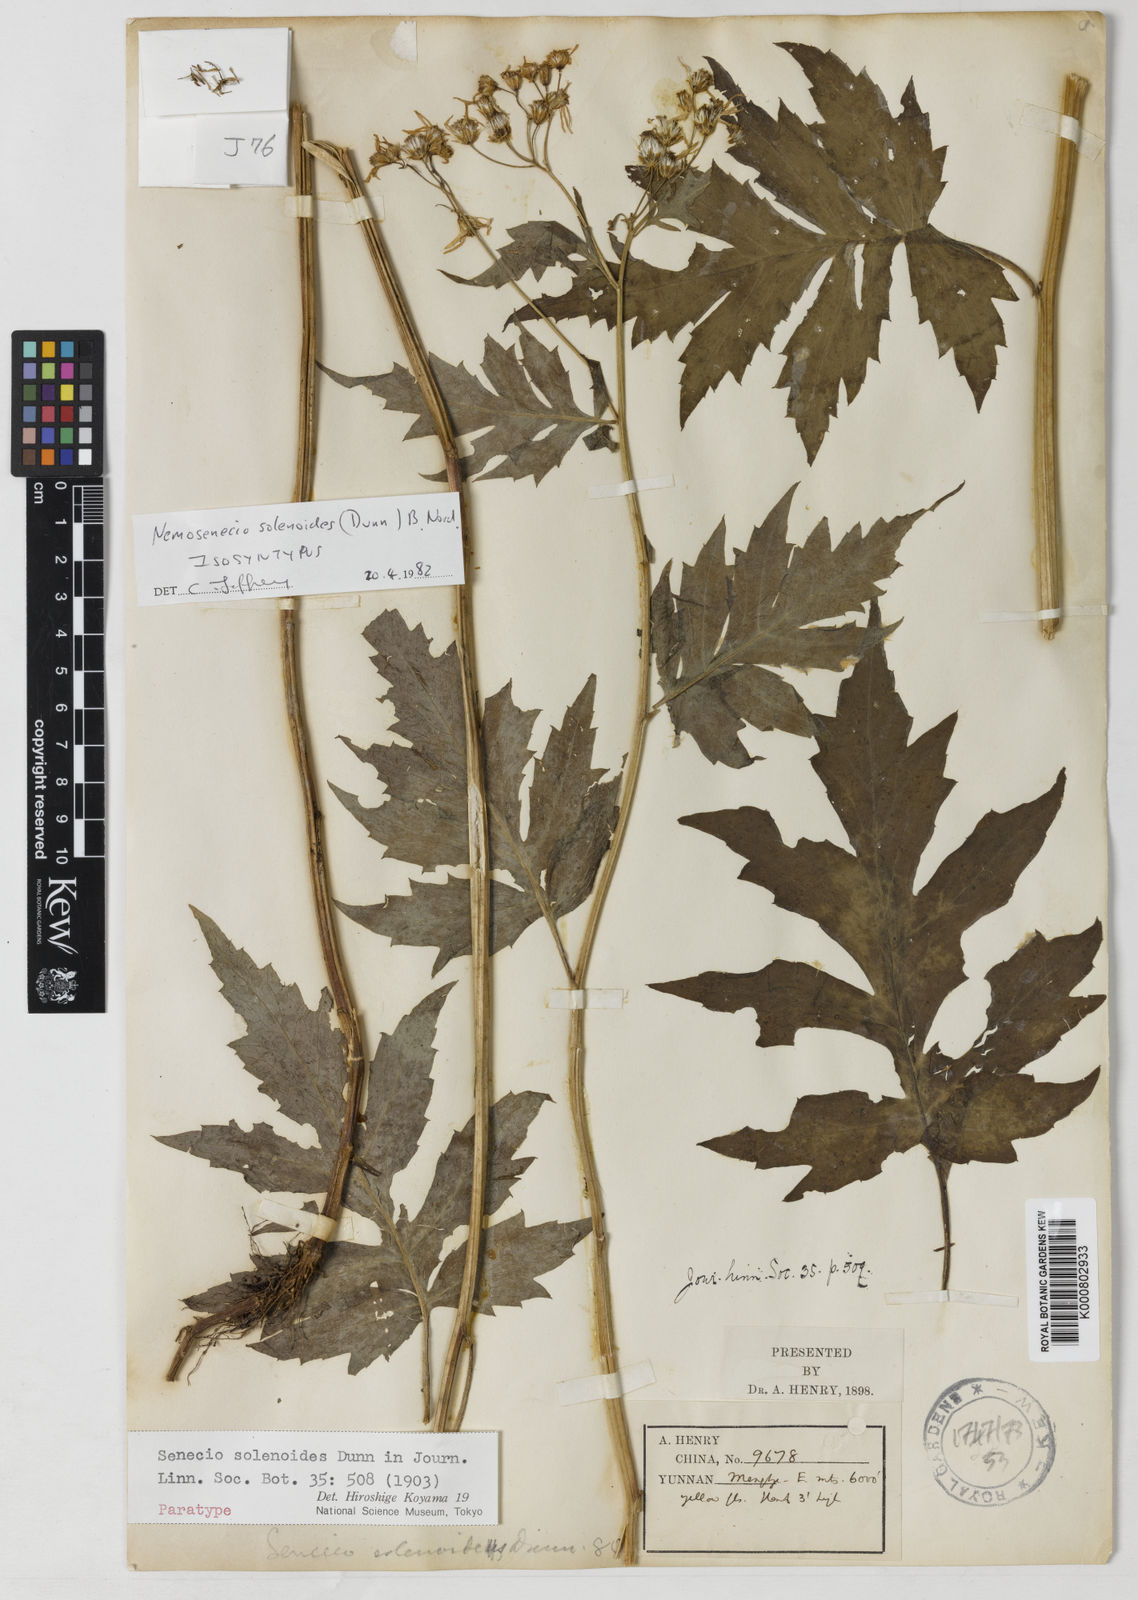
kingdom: Plantae
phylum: Tracheophyta
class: Magnoliopsida
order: Asterales
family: Asteraceae
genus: Nemosenecio
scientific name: Nemosenecio solenoides
